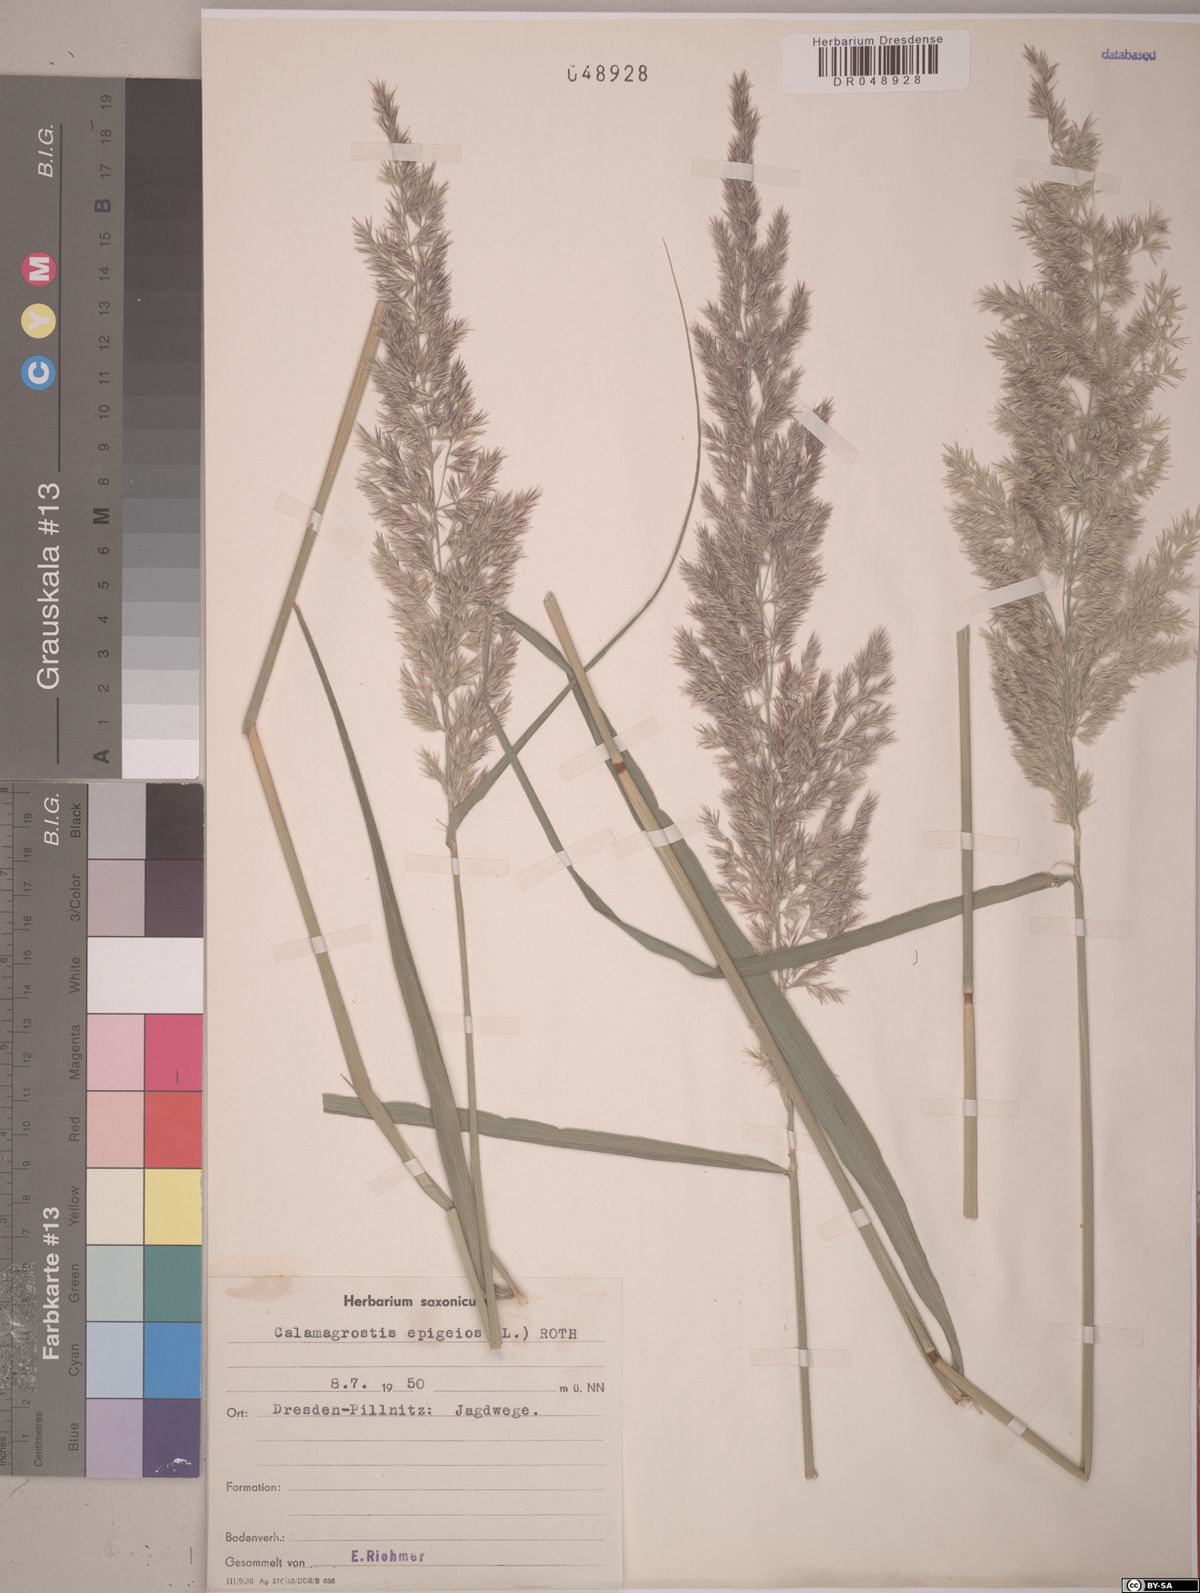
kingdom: Plantae
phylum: Tracheophyta
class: Liliopsida
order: Poales
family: Poaceae
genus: Calamagrostis
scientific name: Calamagrostis epigejos
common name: Wood small-reed
